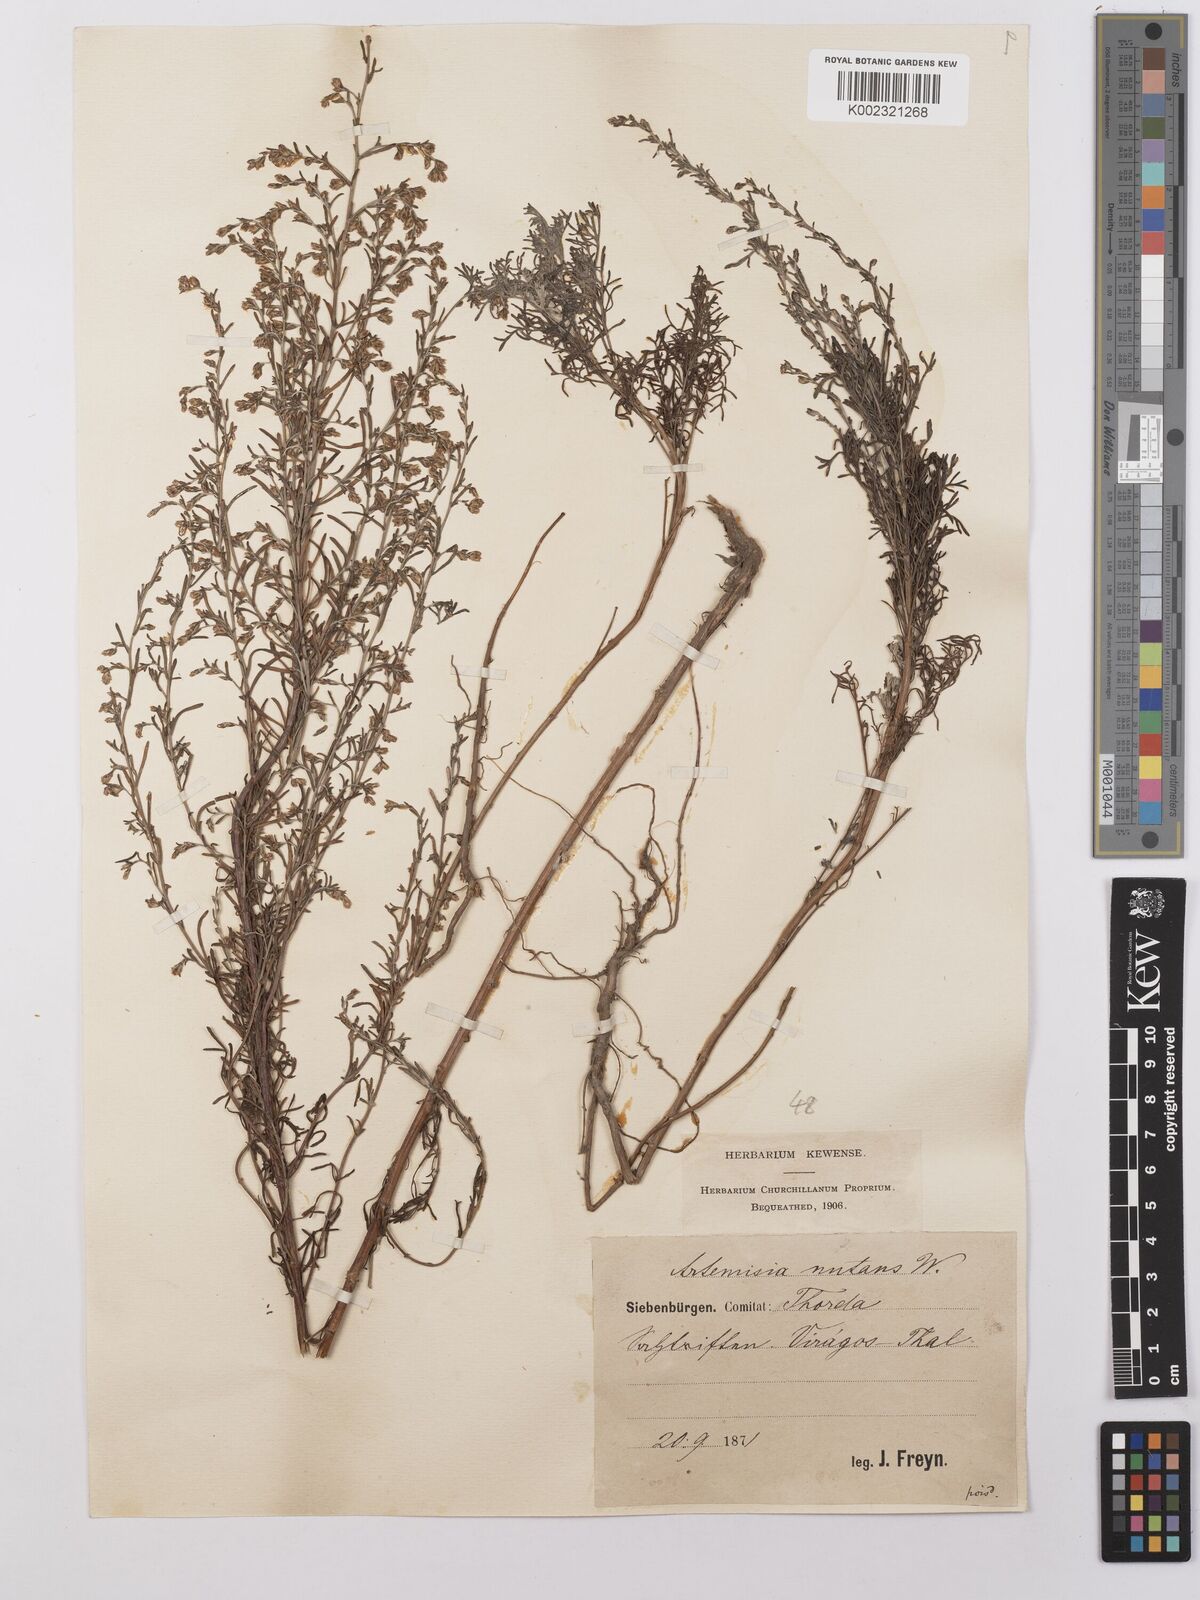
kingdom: Plantae
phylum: Tracheophyta
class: Magnoliopsida
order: Asterales
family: Asteraceae
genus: Artemisia
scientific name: Artemisia nutans
